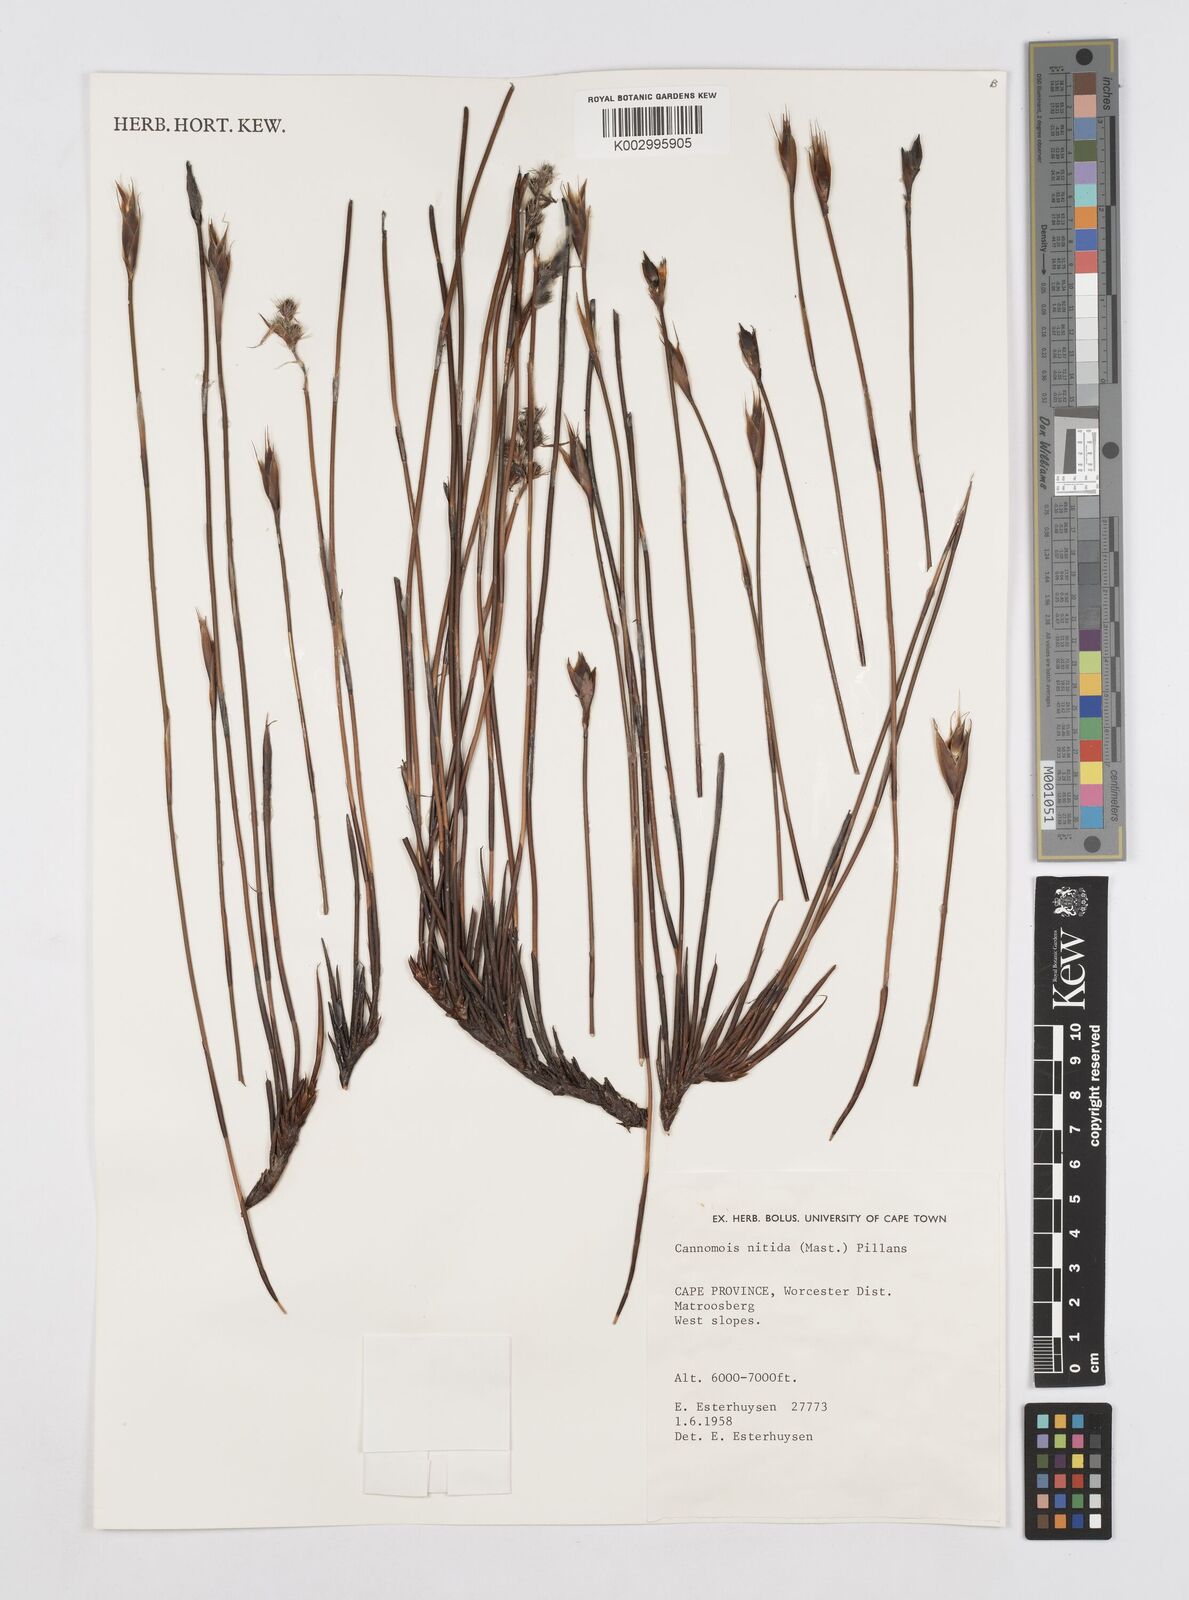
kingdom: Plantae
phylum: Tracheophyta
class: Liliopsida
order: Poales
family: Restionaceae
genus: Cannomois
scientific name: Cannomois nitida
